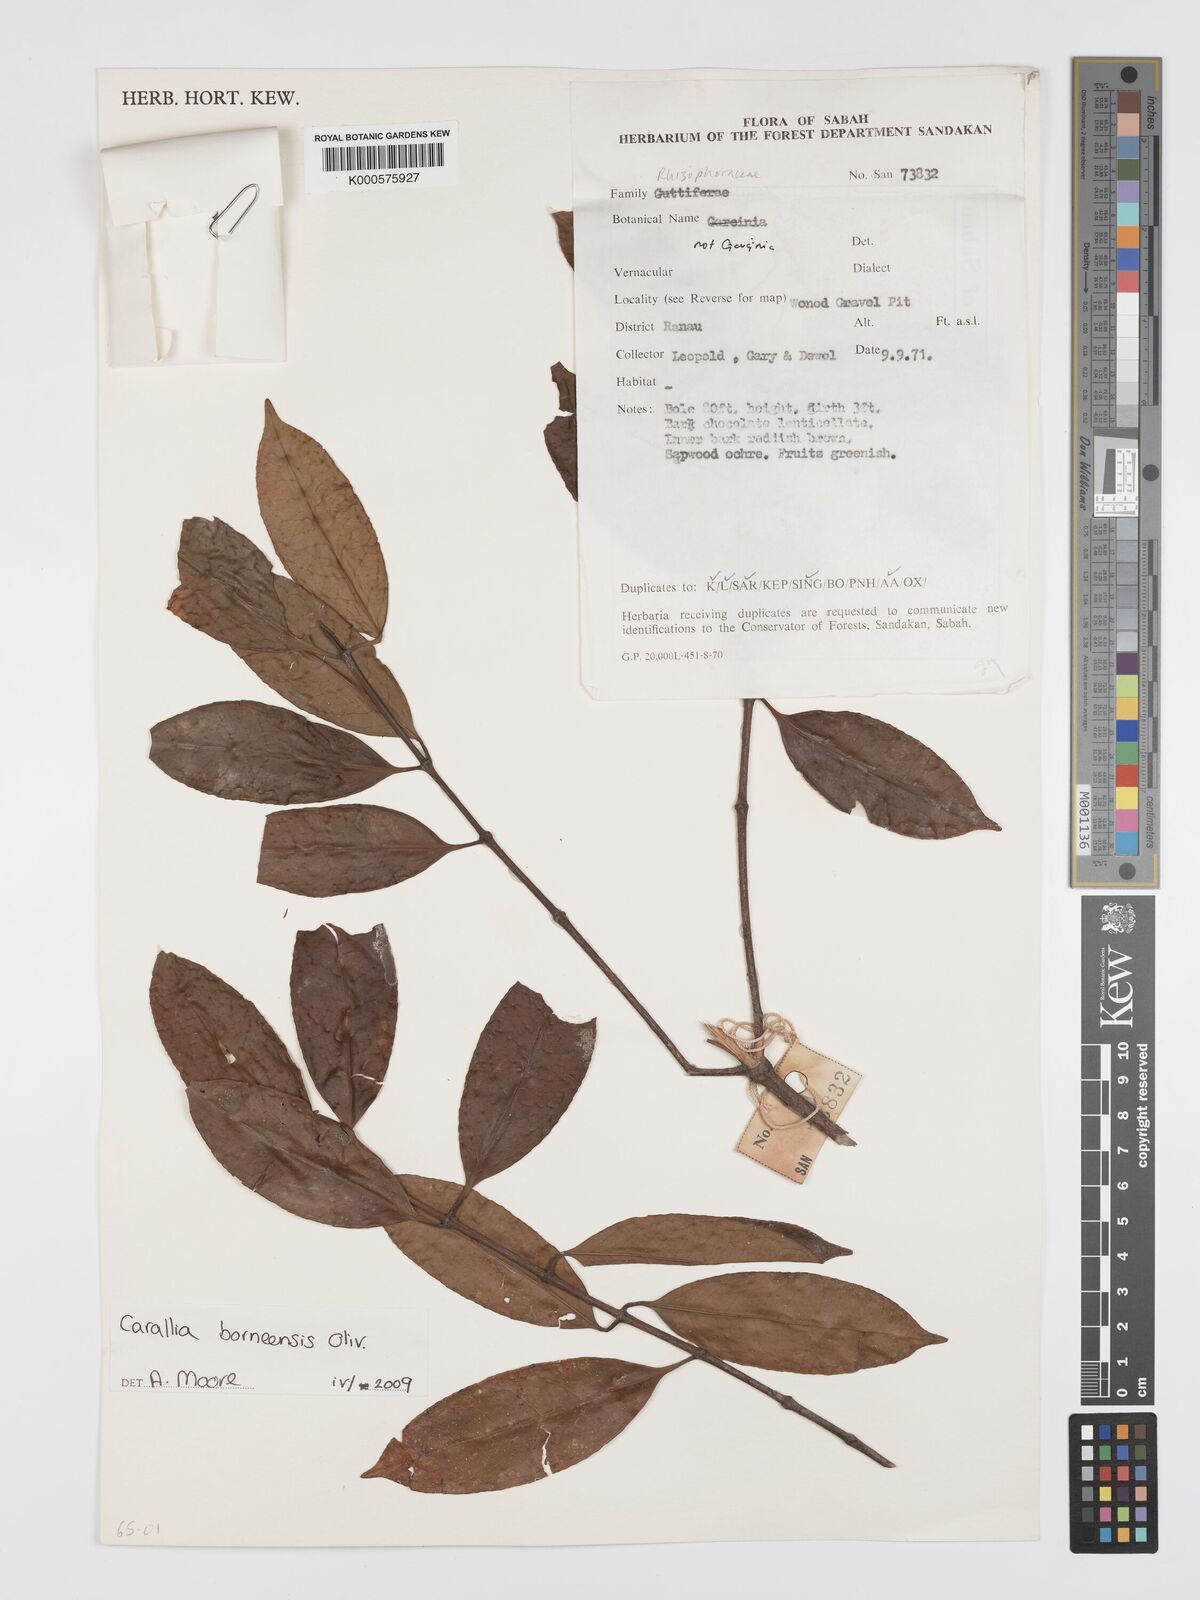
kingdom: Plantae
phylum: Tracheophyta
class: Magnoliopsida
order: Malpighiales
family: Rhizophoraceae
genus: Carallia
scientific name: Carallia borneensis
